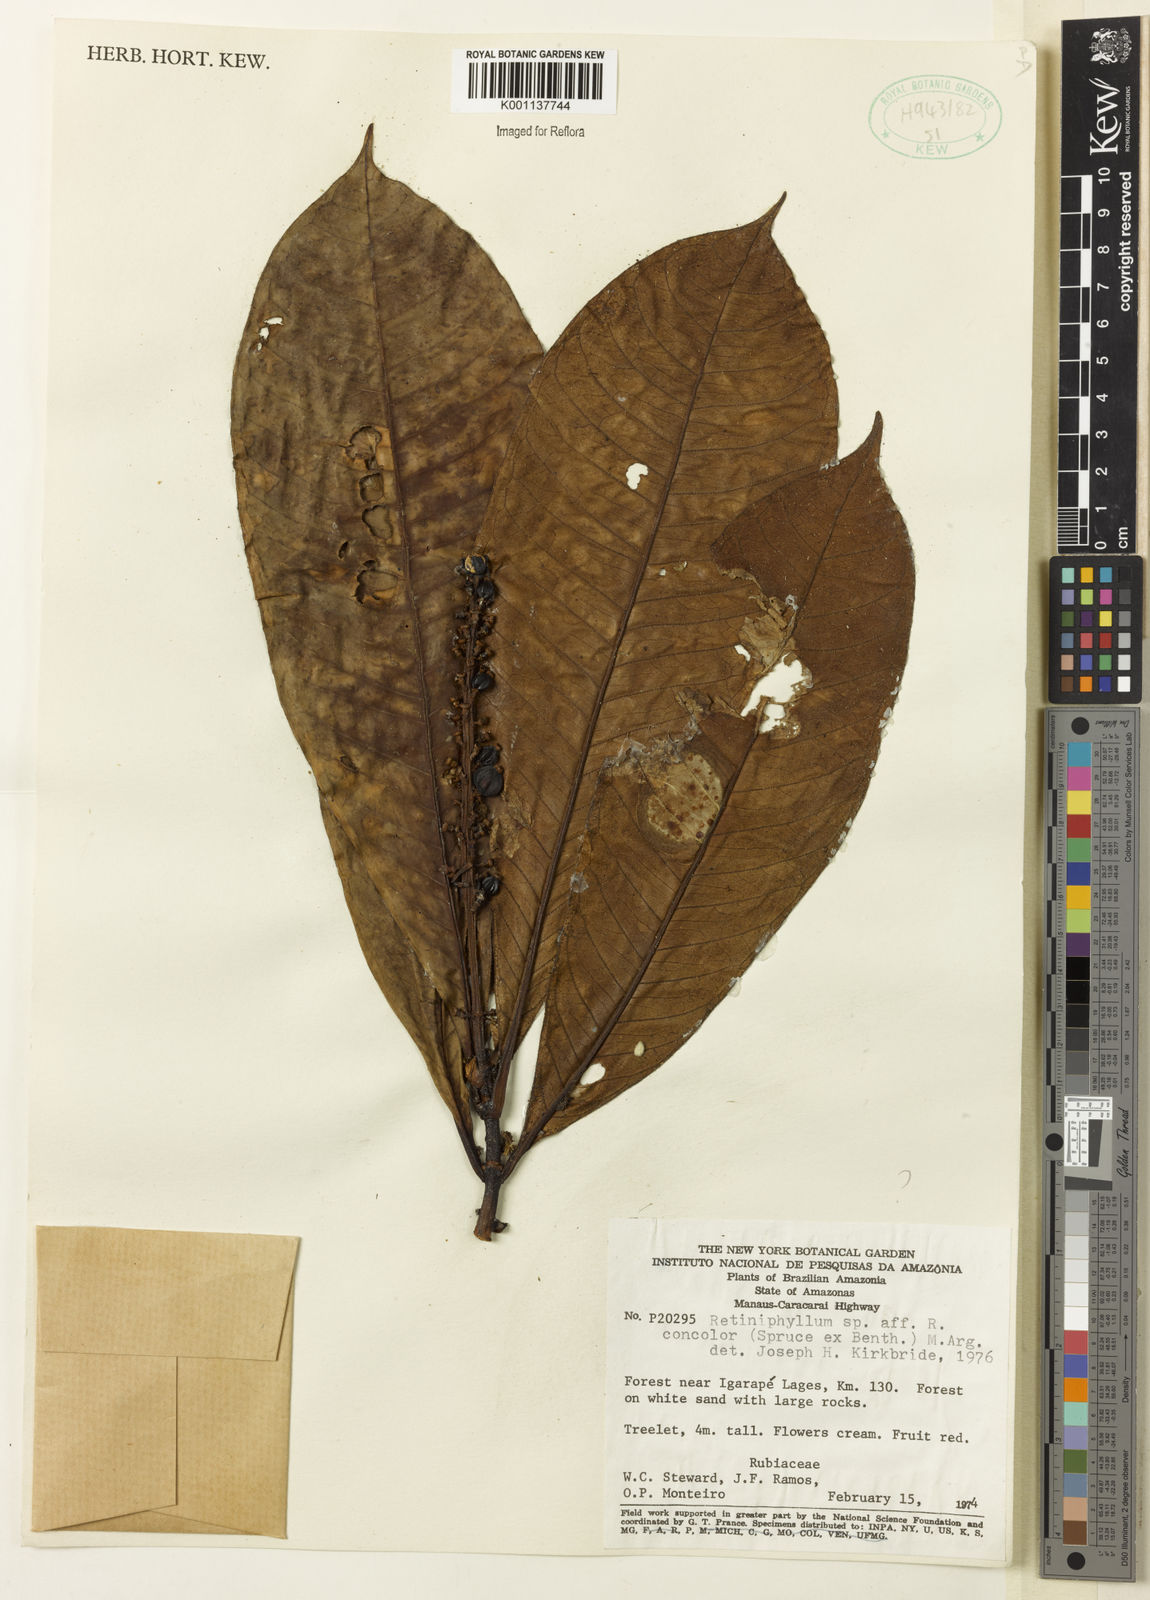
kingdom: Plantae
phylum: Tracheophyta
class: Magnoliopsida
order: Gentianales
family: Rubiaceae
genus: Retiniphyllum
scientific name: Retiniphyllum
